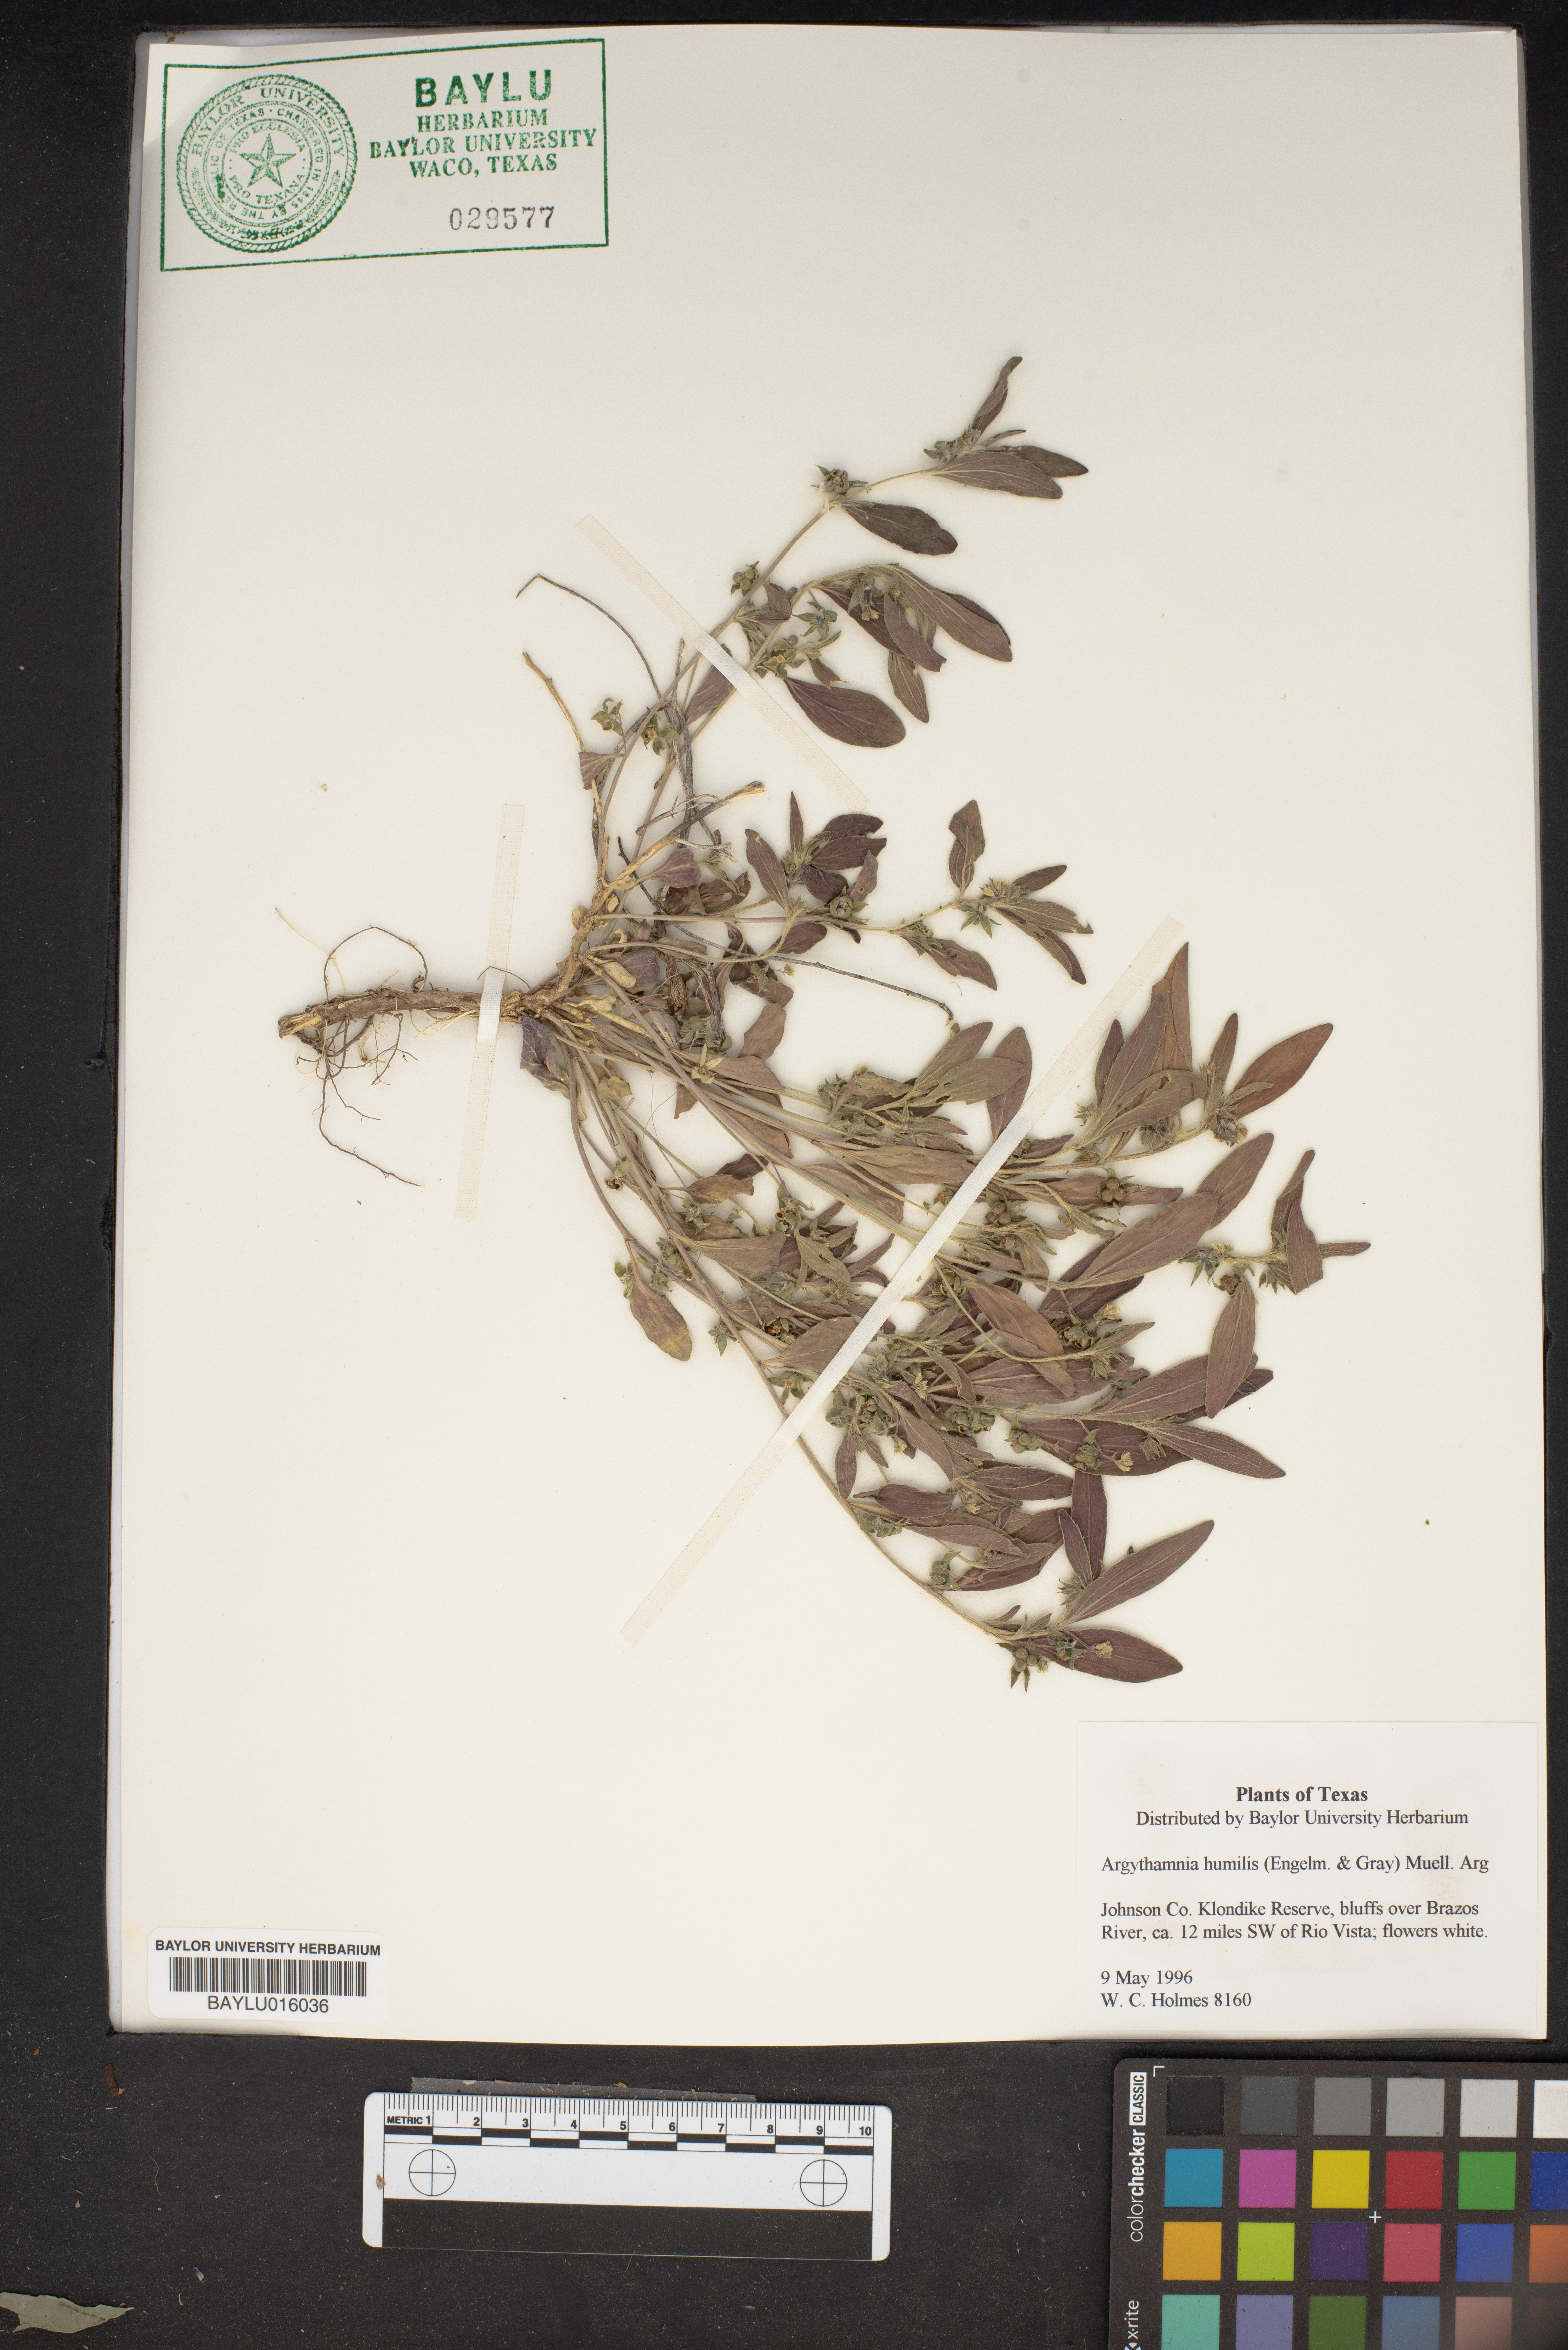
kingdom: Plantae
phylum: Tracheophyta
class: Magnoliopsida
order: Malpighiales
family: Euphorbiaceae
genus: Ditaxis
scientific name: Ditaxis humilis
